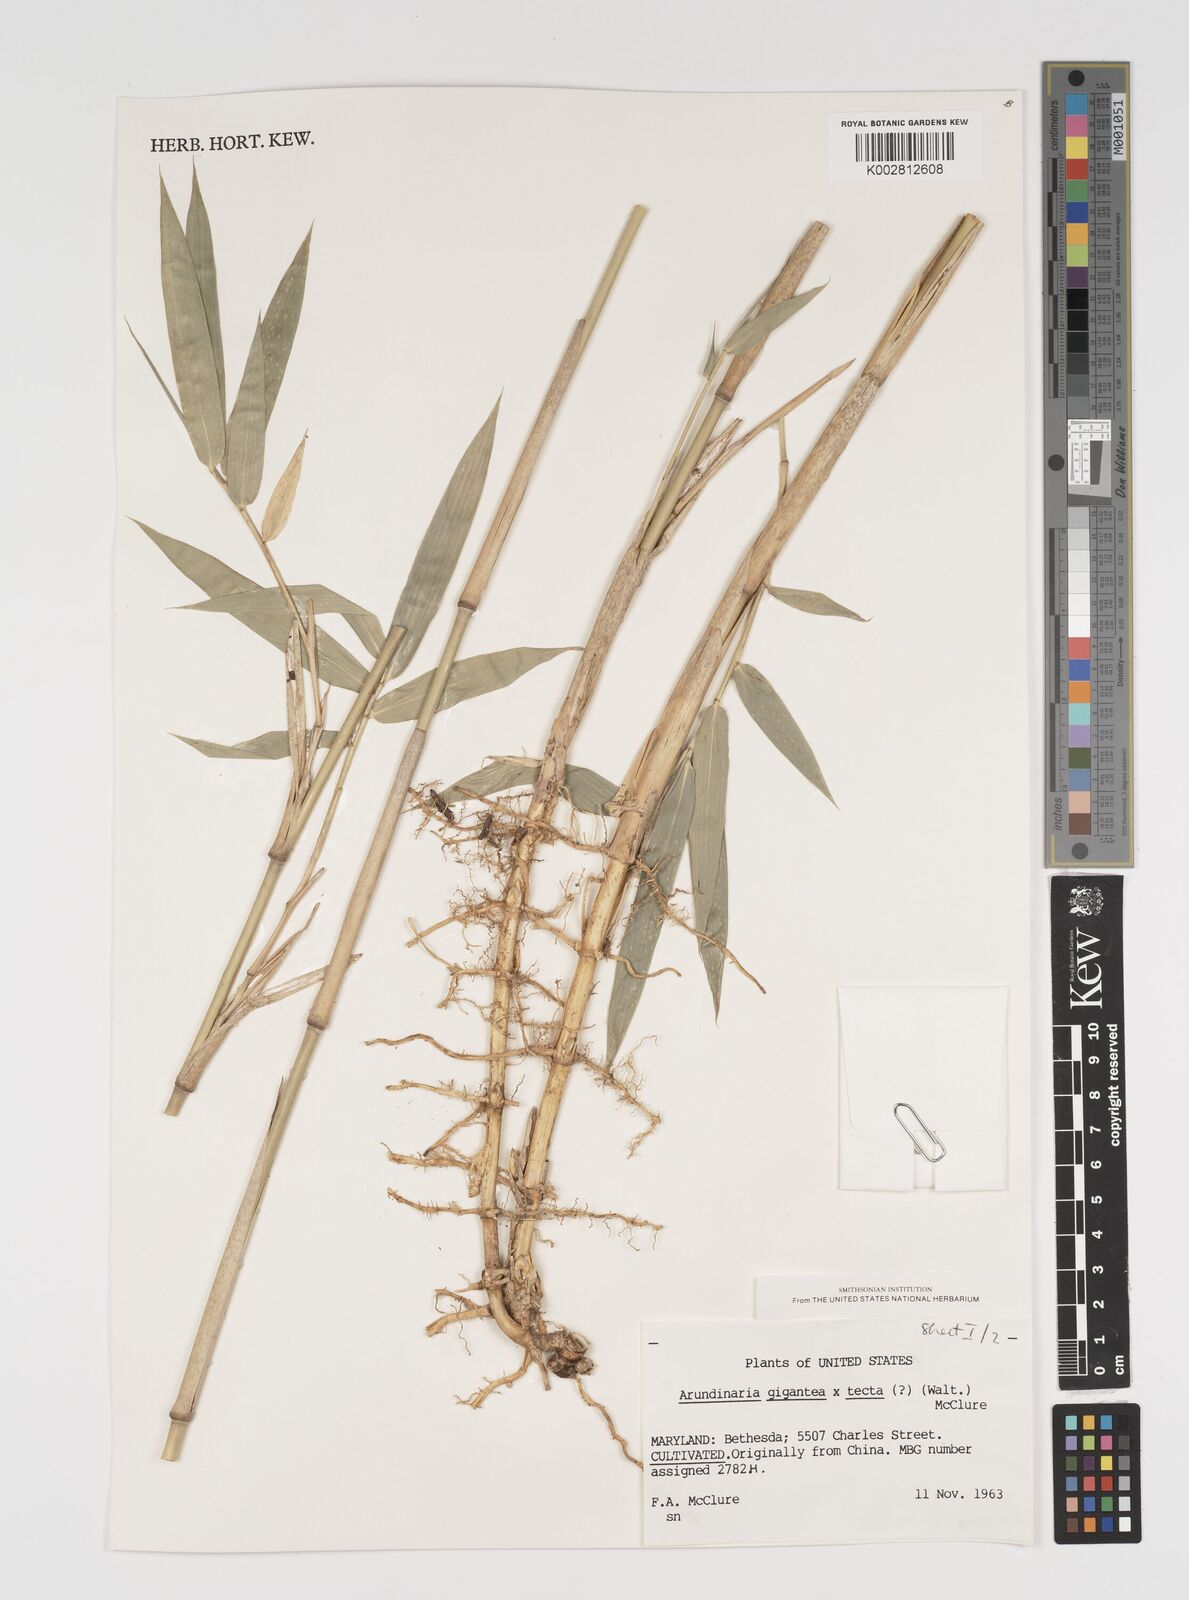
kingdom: Plantae
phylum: Tracheophyta
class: Liliopsida
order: Poales
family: Poaceae
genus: Arundinaria
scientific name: Arundinaria
